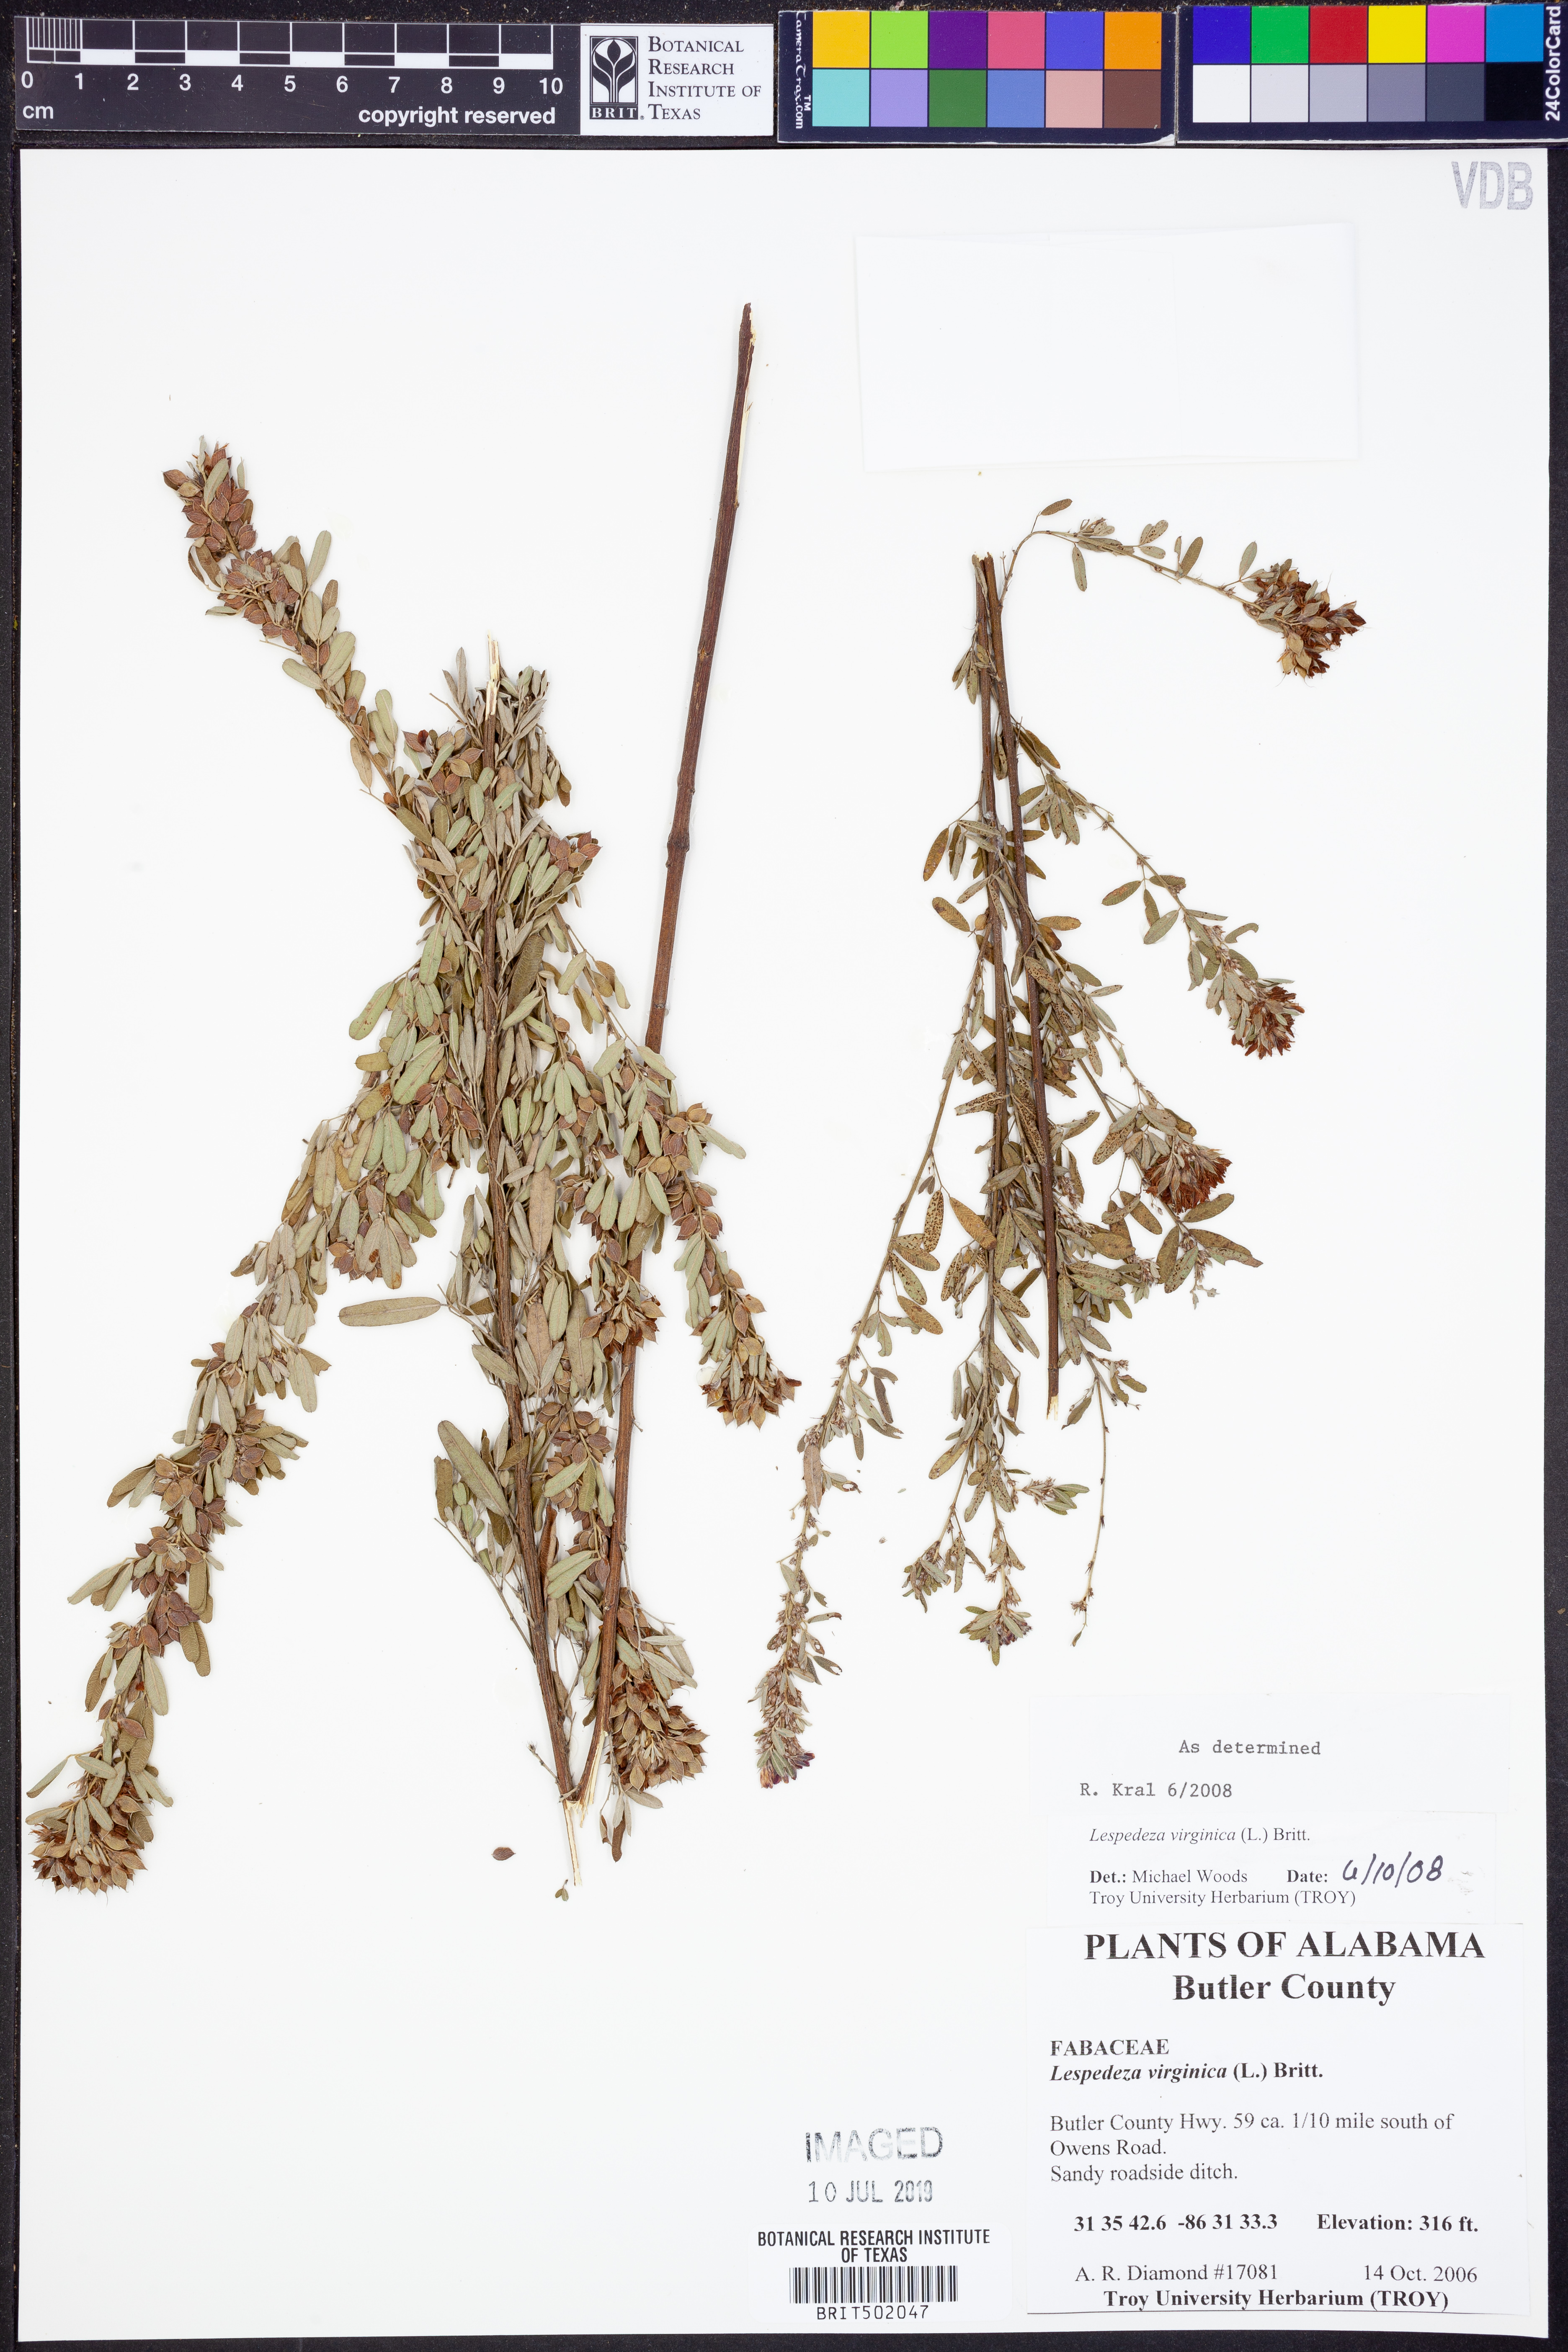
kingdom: Plantae
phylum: Tracheophyta
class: Magnoliopsida
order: Fabales
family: Fabaceae
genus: Lespedeza
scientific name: Lespedeza virginica
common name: Slender bush-clover
